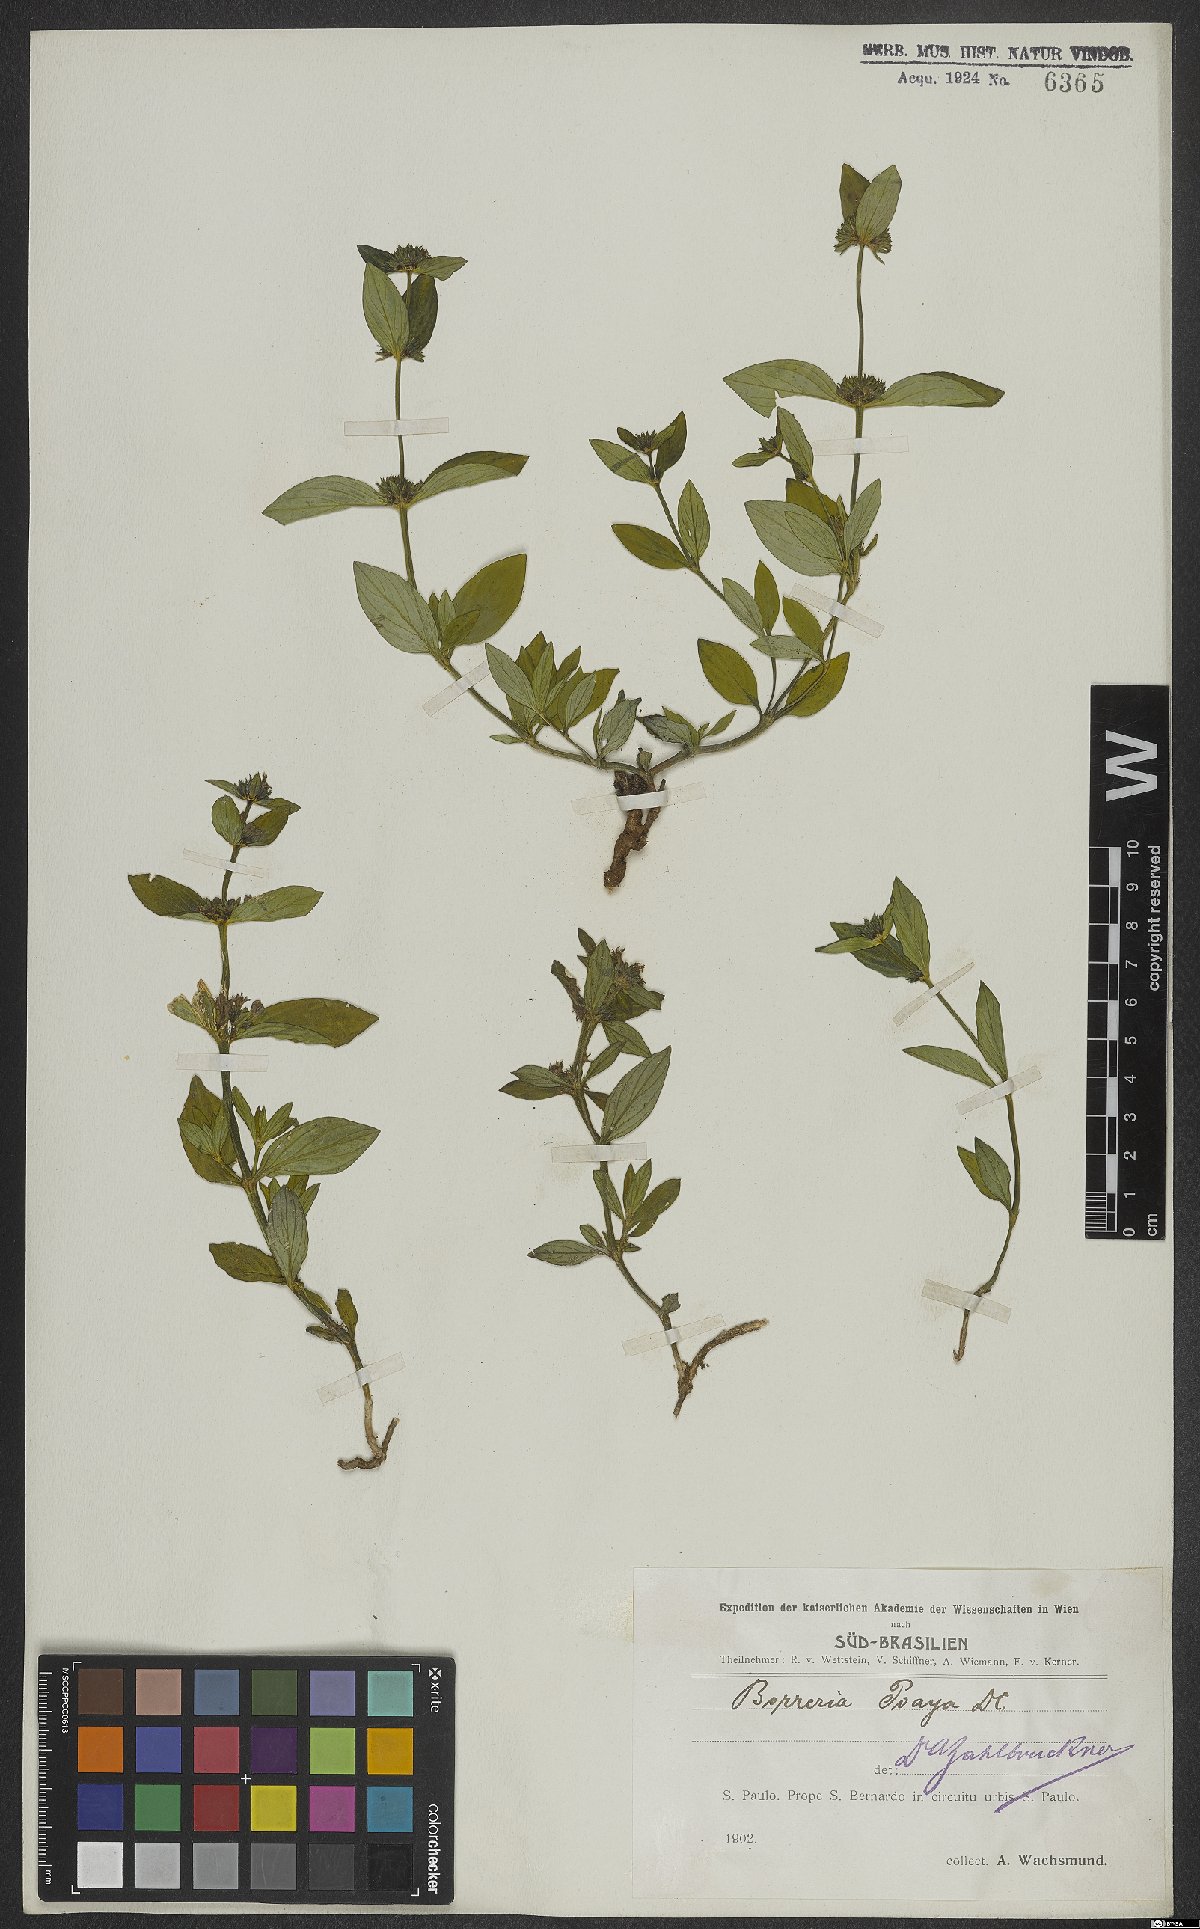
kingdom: Plantae
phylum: Tracheophyta
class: Magnoliopsida
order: Gentianales
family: Rubiaceae
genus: Spermacoce
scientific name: Spermacoce poaya
